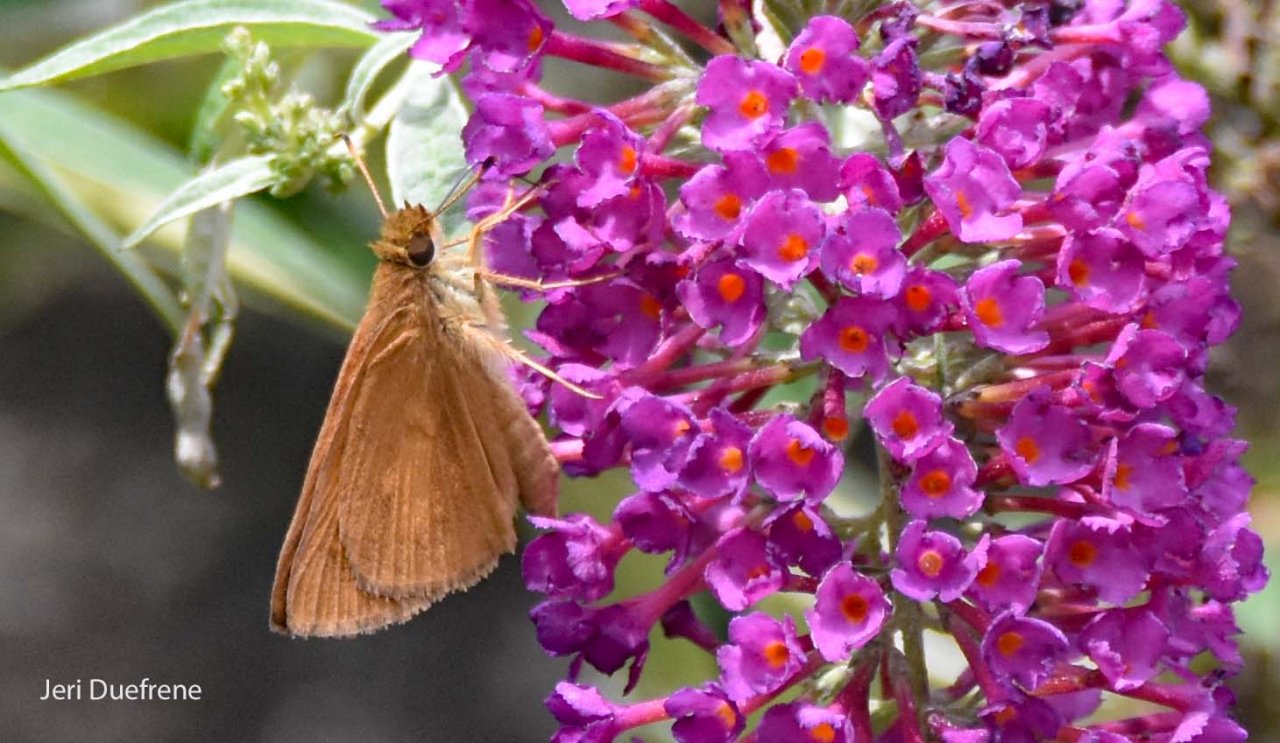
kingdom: Animalia
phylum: Arthropoda
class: Insecta
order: Lepidoptera
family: Hesperiidae
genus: Nastra
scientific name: Nastra lherminier
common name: Swarthy Skipper
